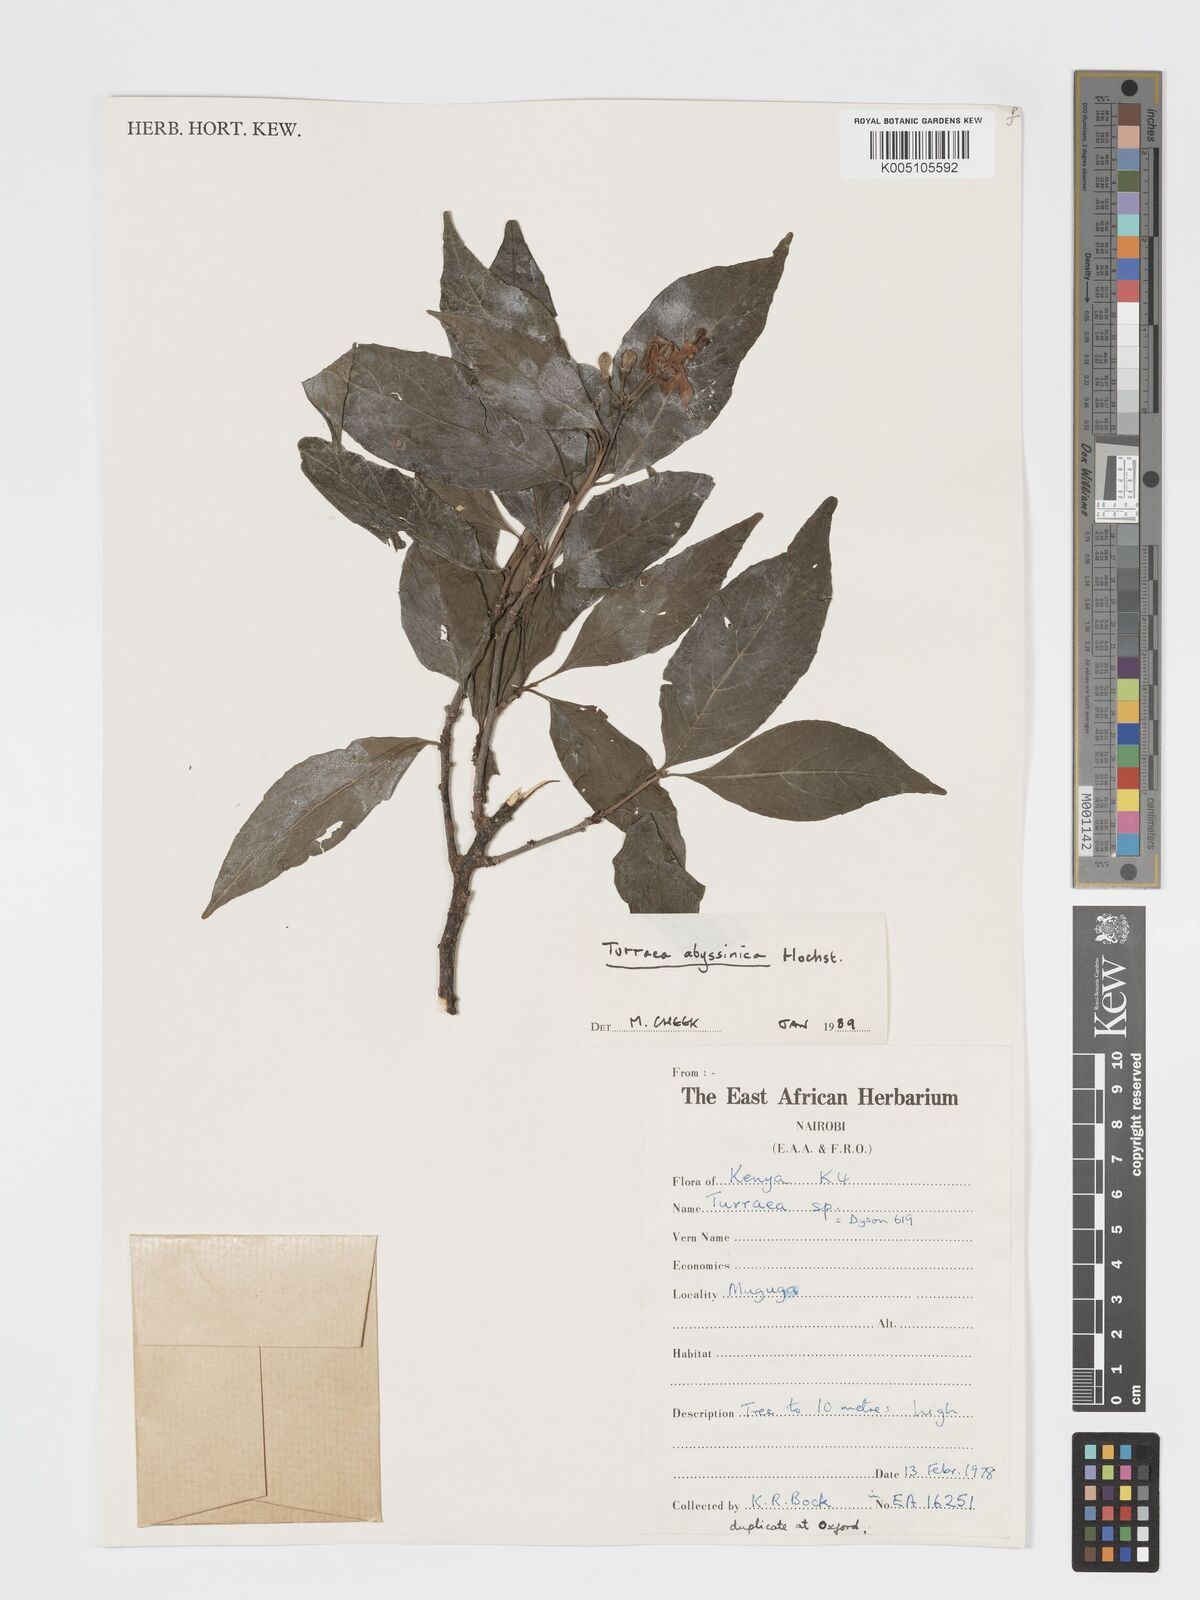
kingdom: Plantae
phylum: Tracheophyta
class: Magnoliopsida
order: Sapindales
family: Meliaceae
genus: Turraea
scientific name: Turraea abyssinica
